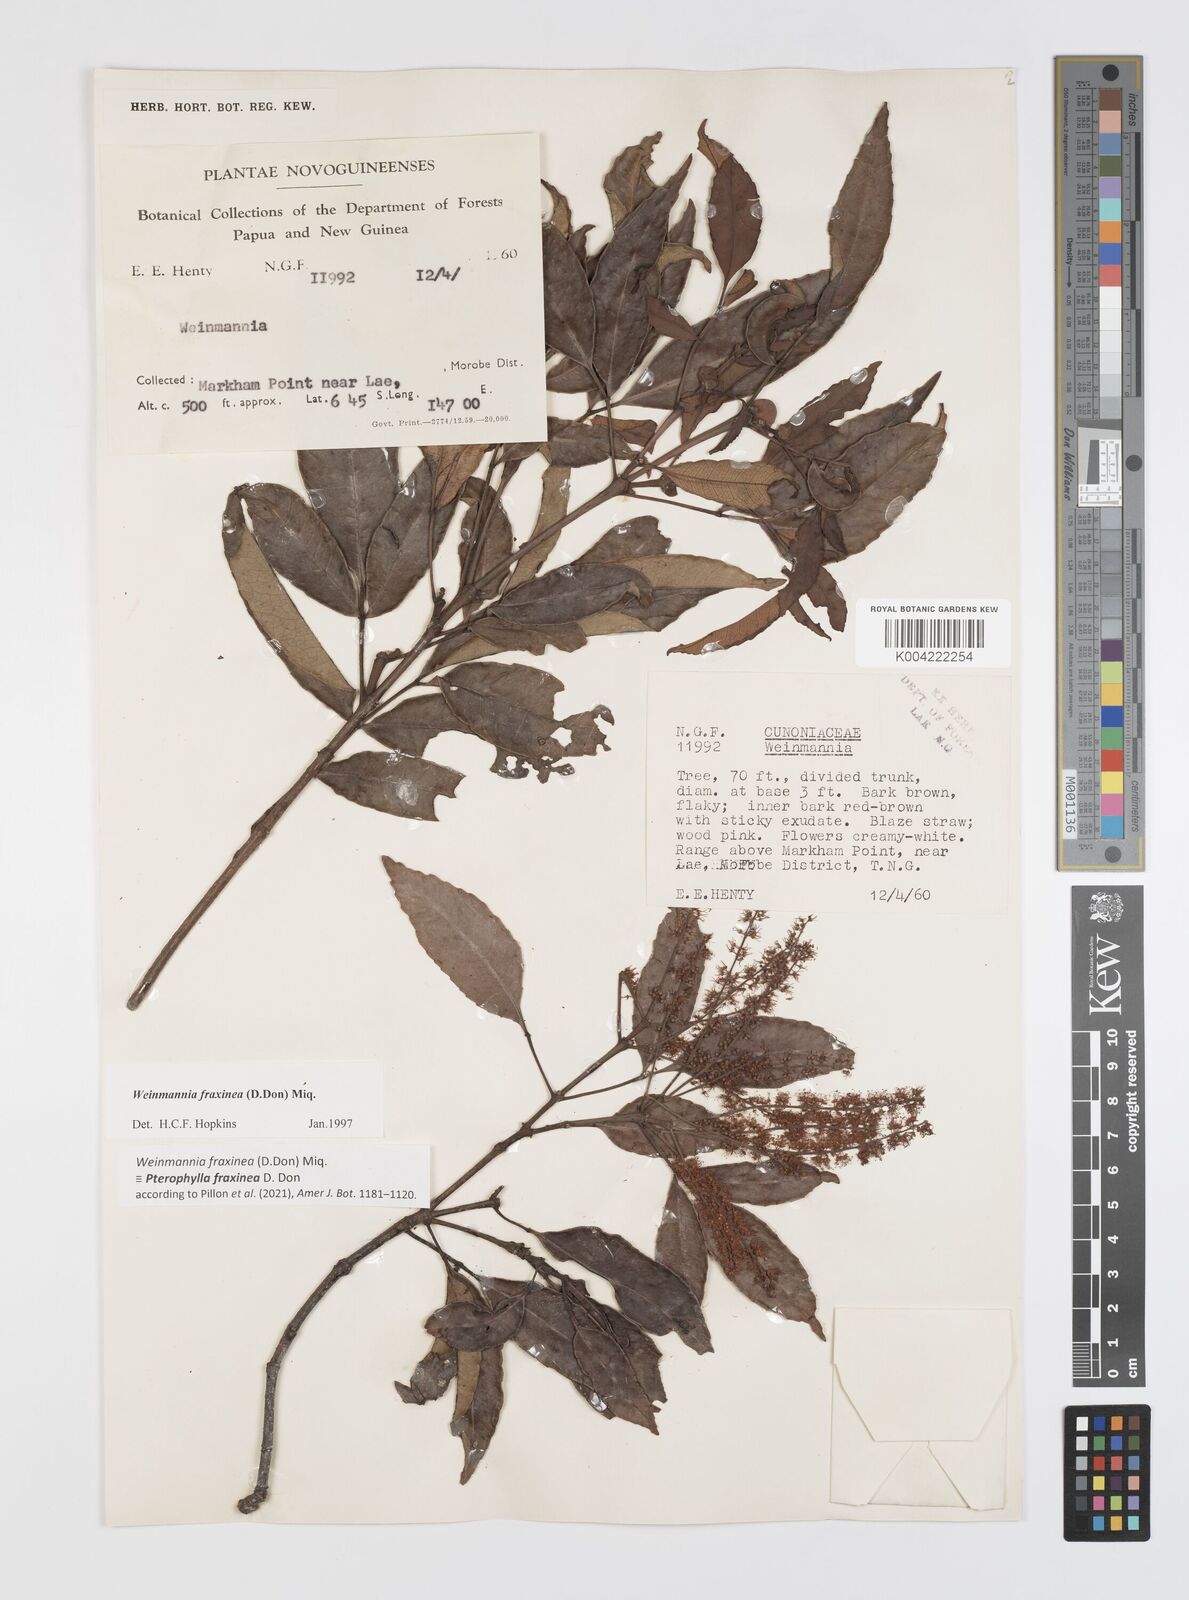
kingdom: Plantae
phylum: Tracheophyta
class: Magnoliopsida
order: Oxalidales
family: Cunoniaceae
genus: Pterophylla
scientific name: Pterophylla fraxinea
